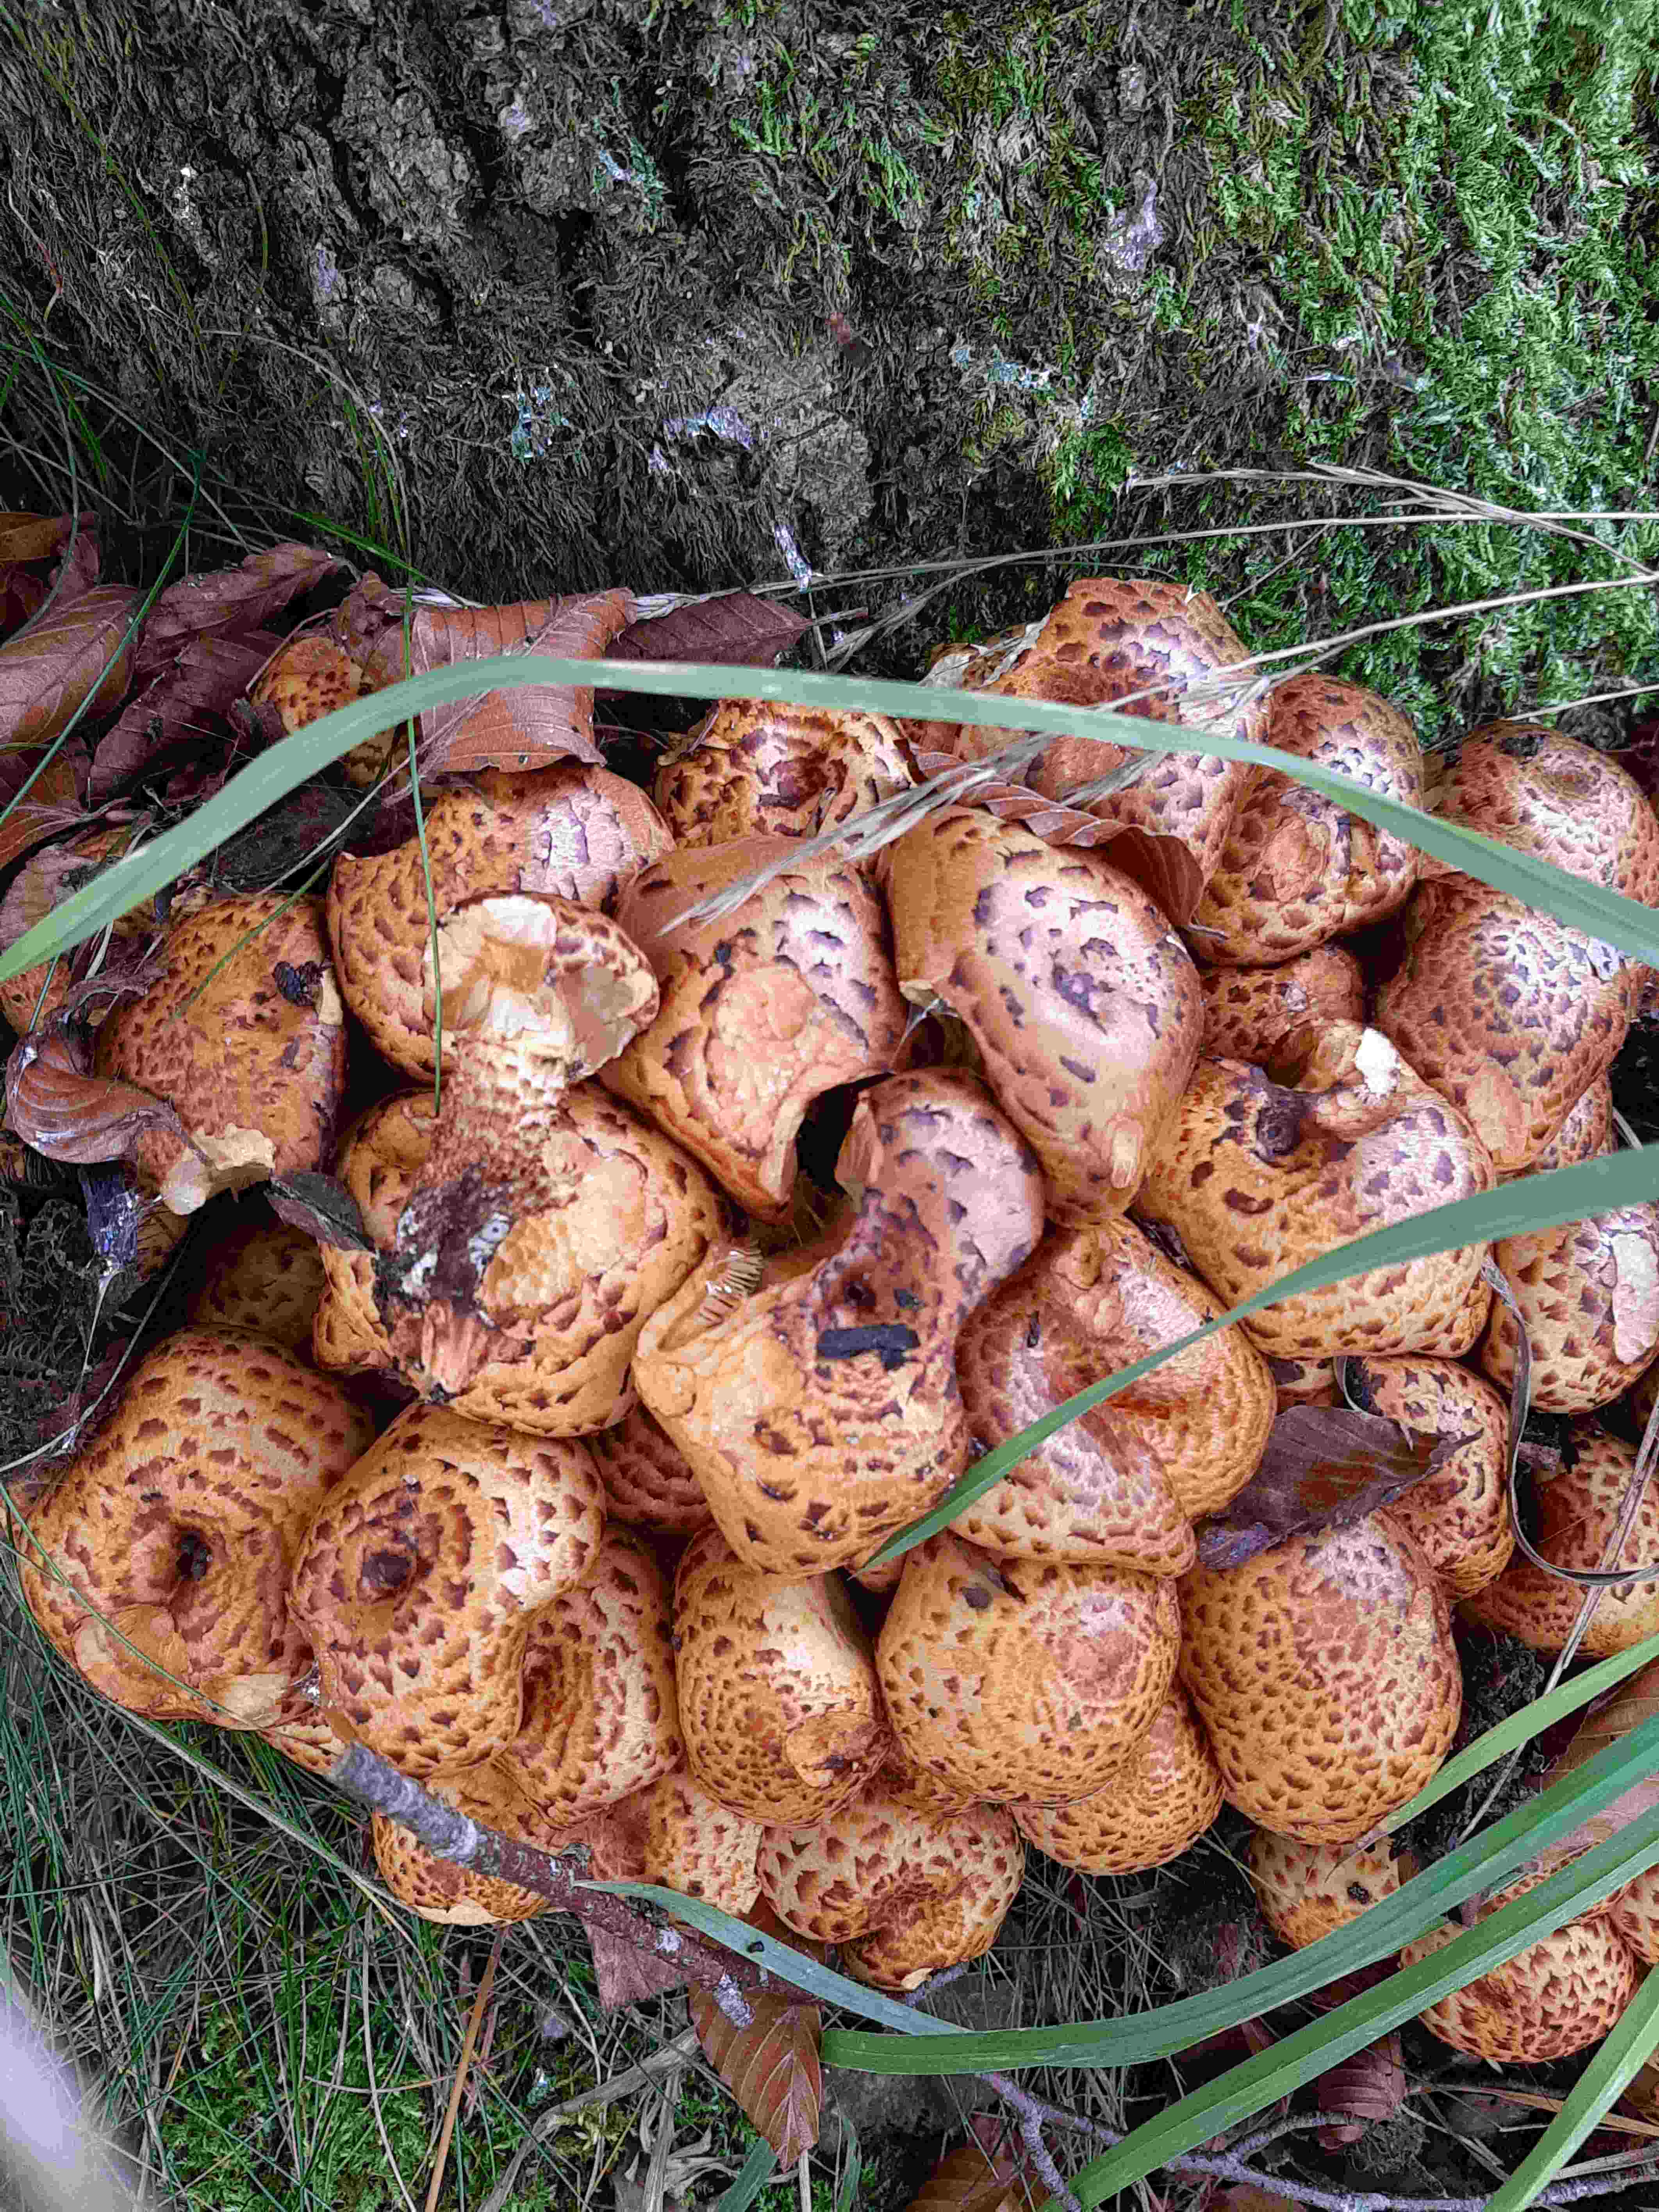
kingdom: Fungi
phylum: Basidiomycota
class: Agaricomycetes
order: Agaricales
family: Strophariaceae
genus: Pholiota
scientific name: Pholiota squarrosa
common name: krumskællet skælhat
